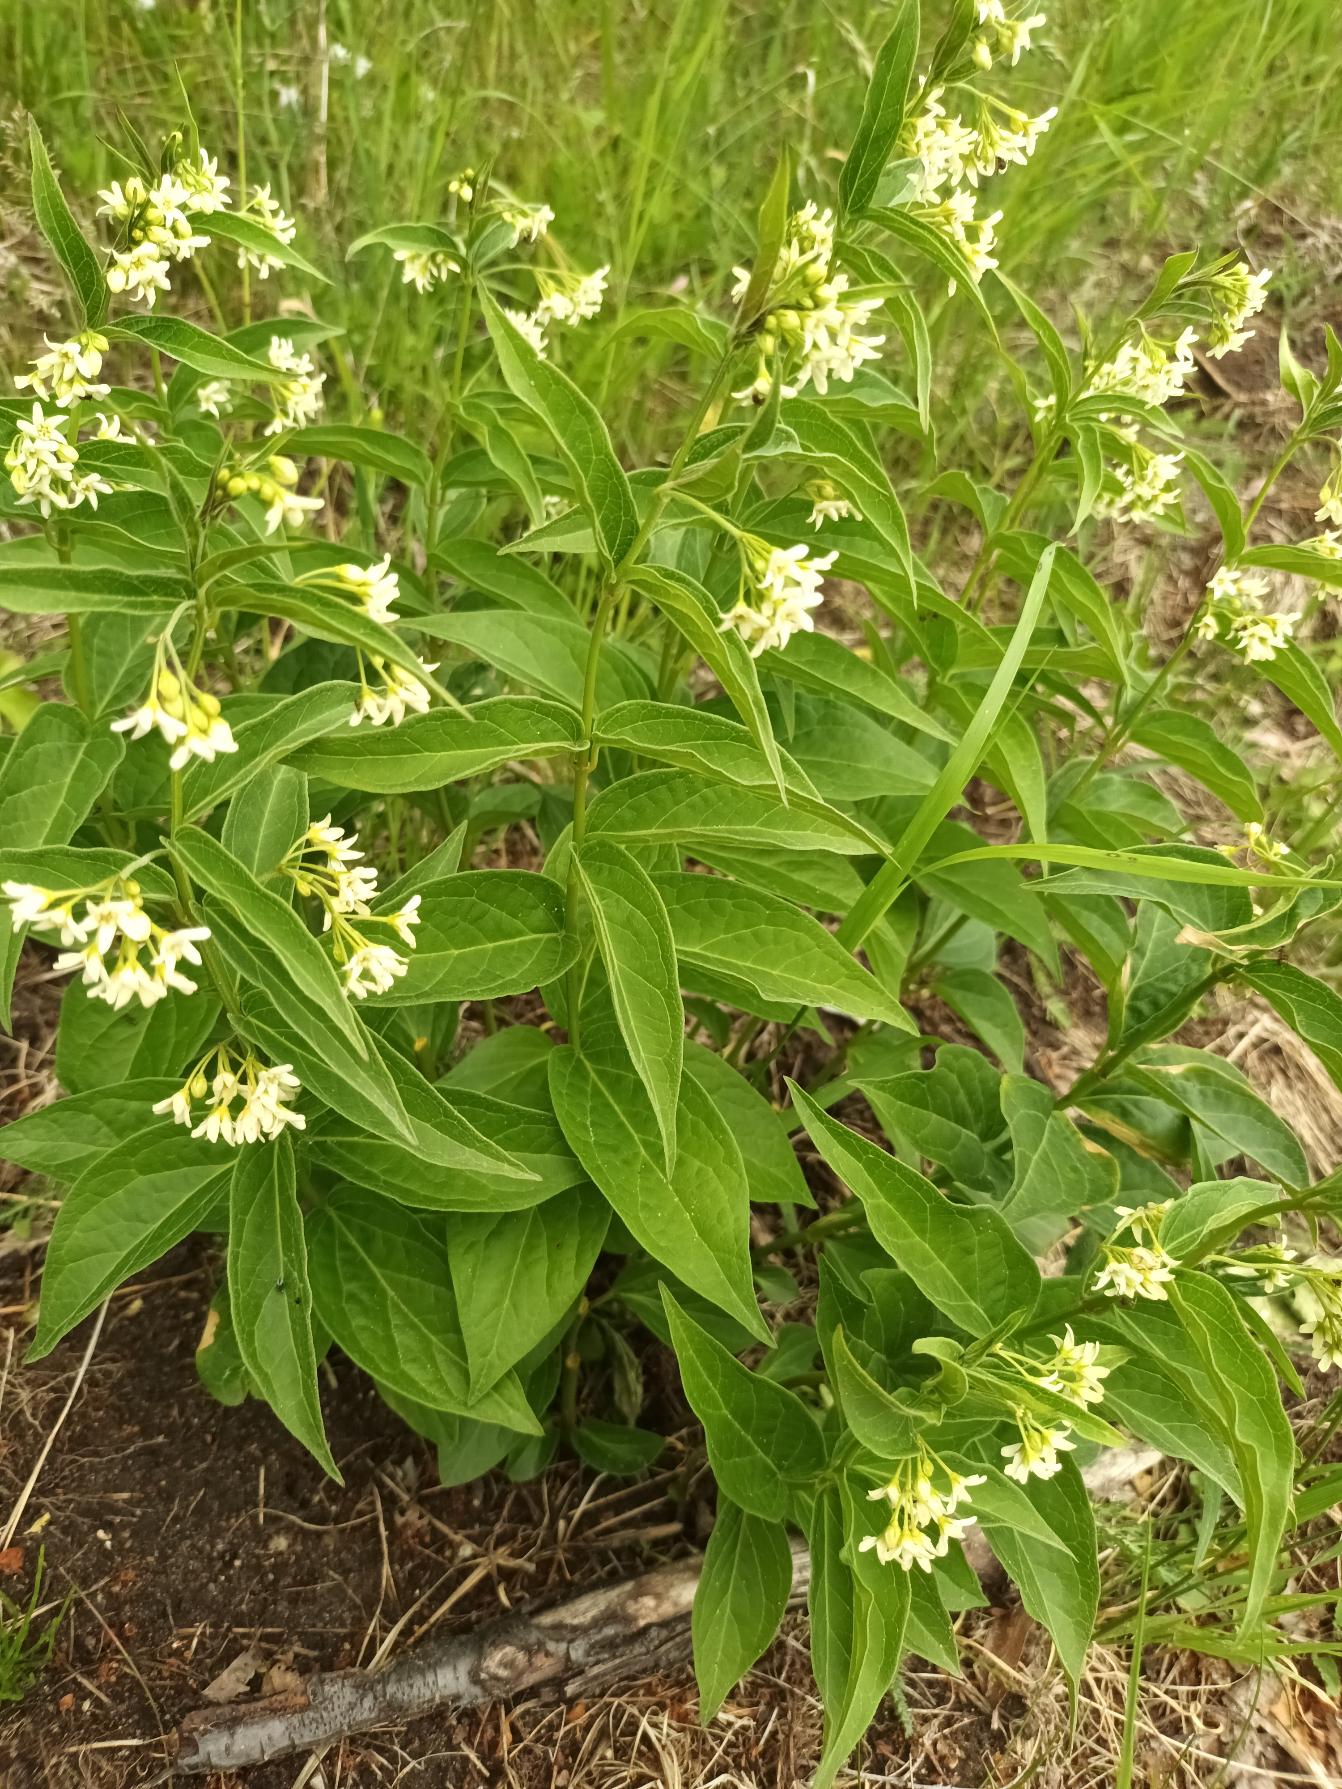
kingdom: Plantae
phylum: Tracheophyta
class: Magnoliopsida
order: Gentianales
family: Apocynaceae
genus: Vincetoxicum
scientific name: Vincetoxicum hirundinaria
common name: Svalerod
